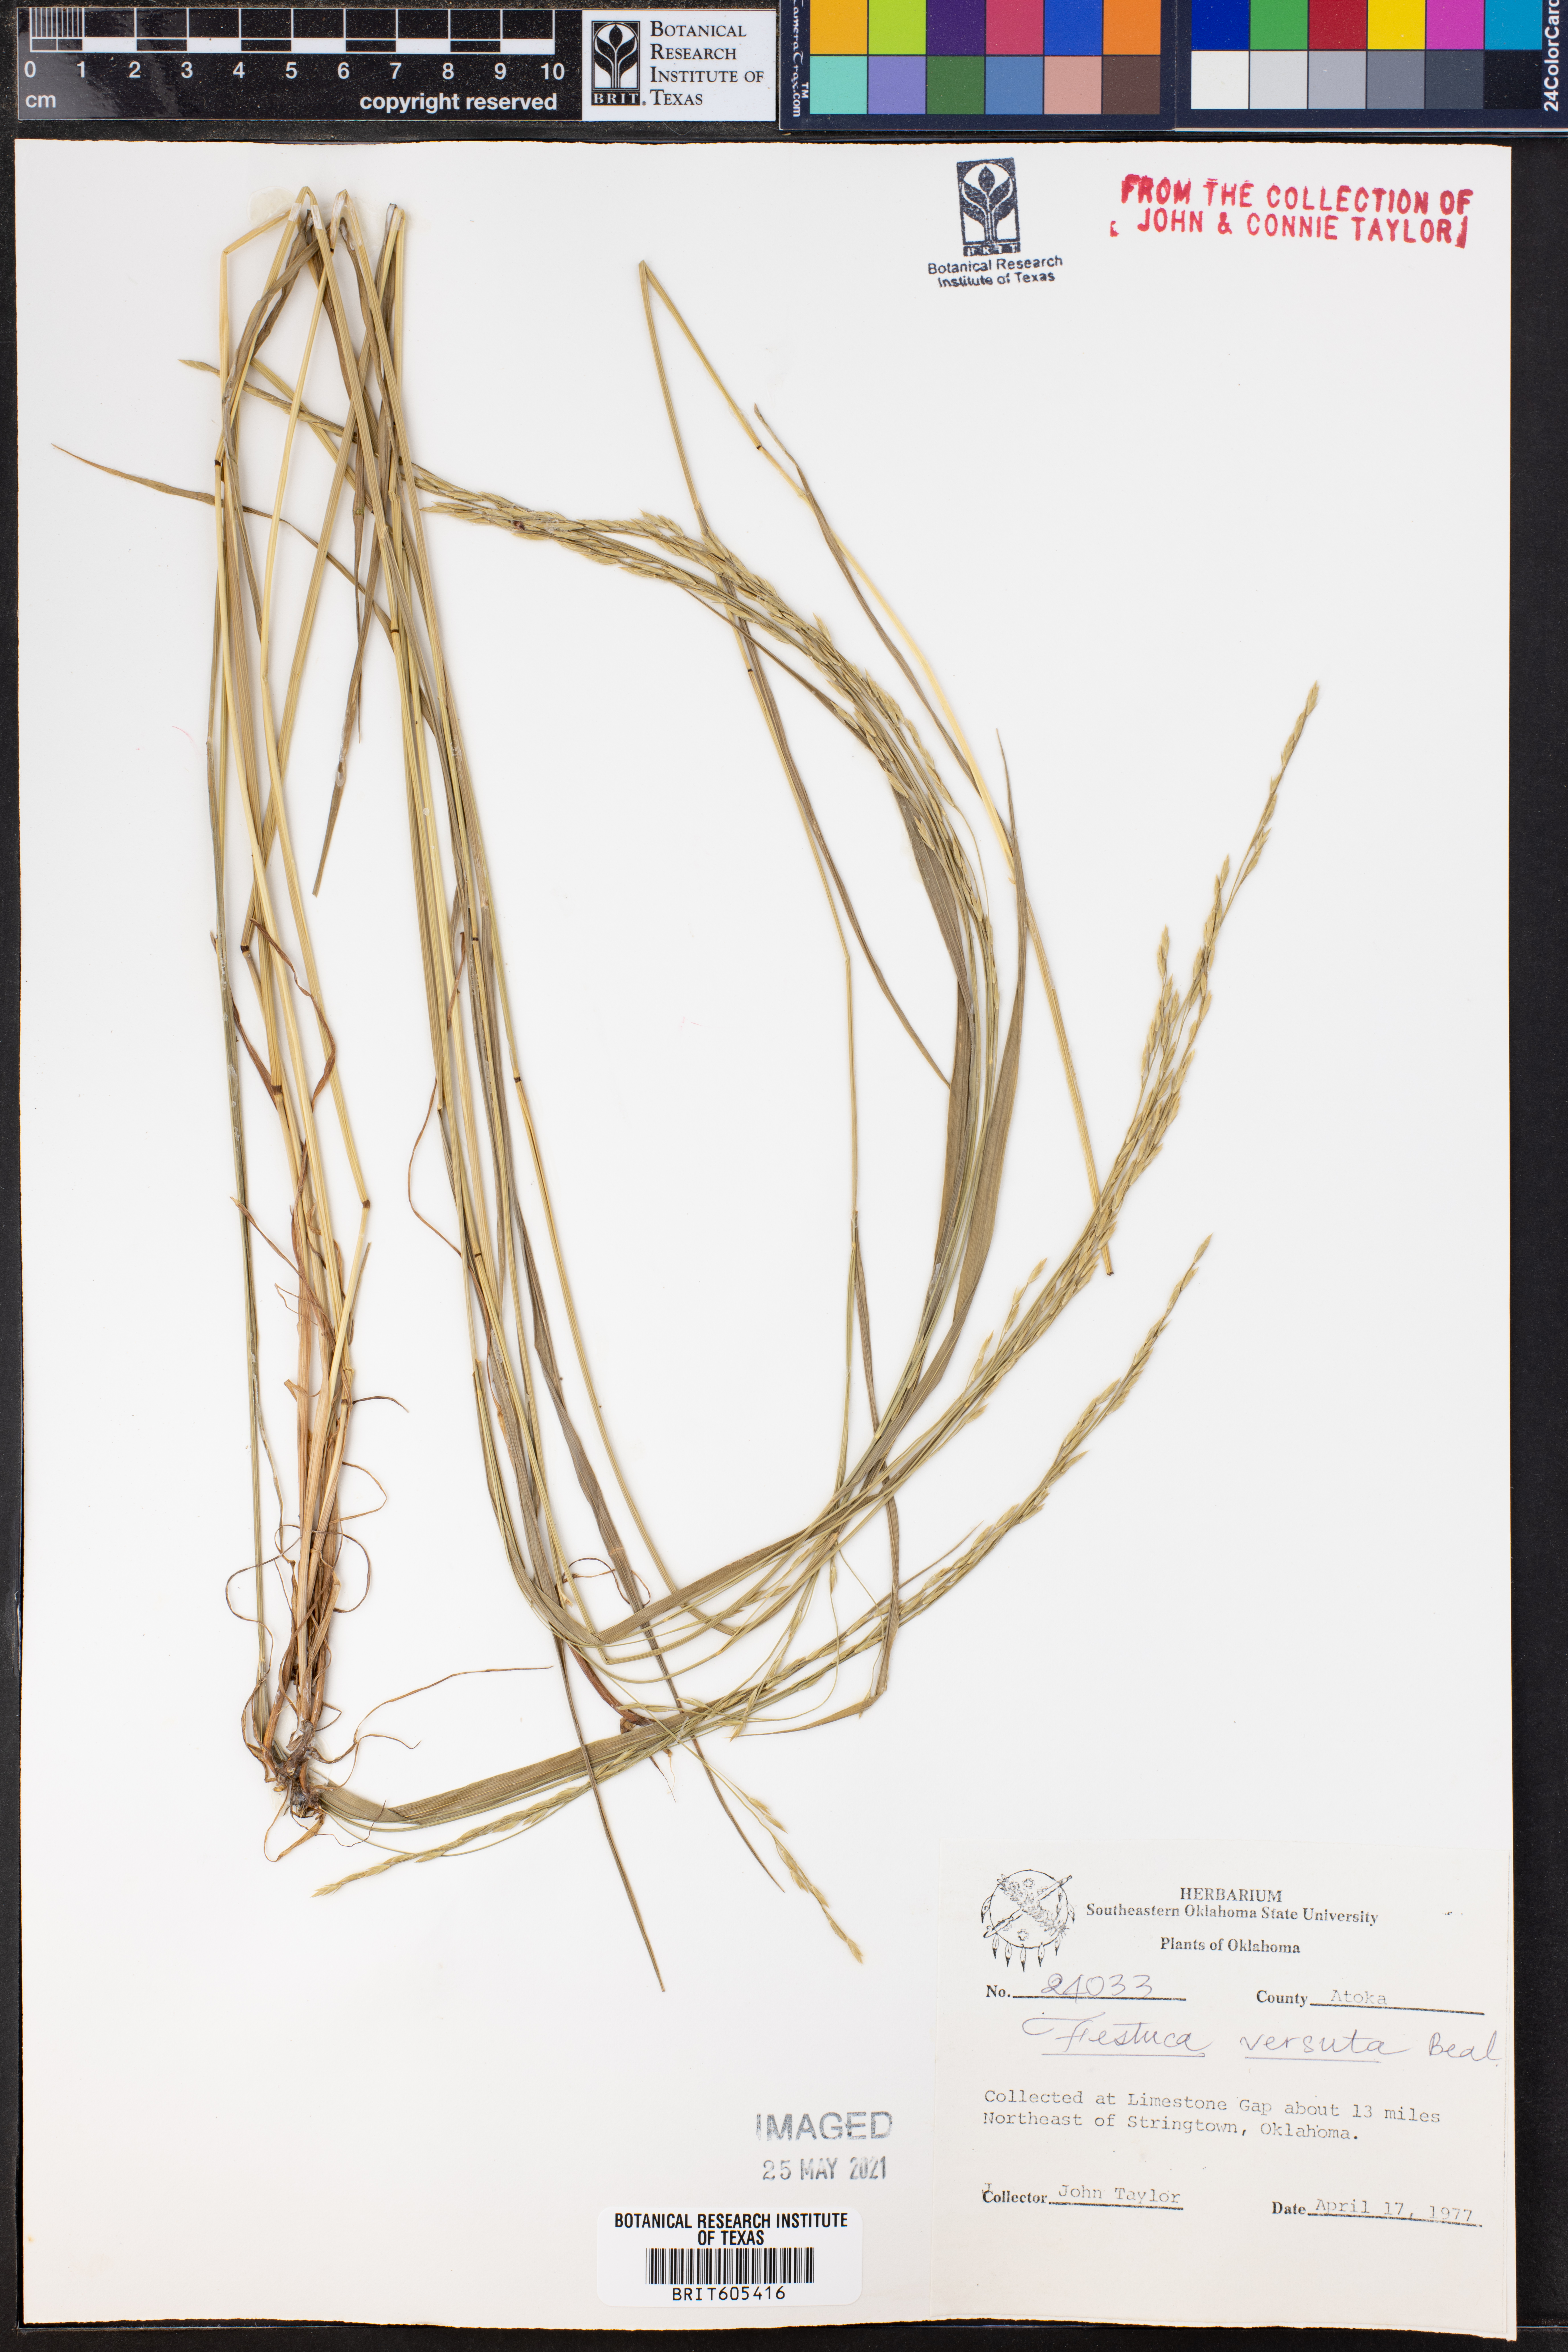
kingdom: Plantae
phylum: Tracheophyta
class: Liliopsida
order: Poales
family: Poaceae
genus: Festuca
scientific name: Festuca versuta
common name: Texas fescue
